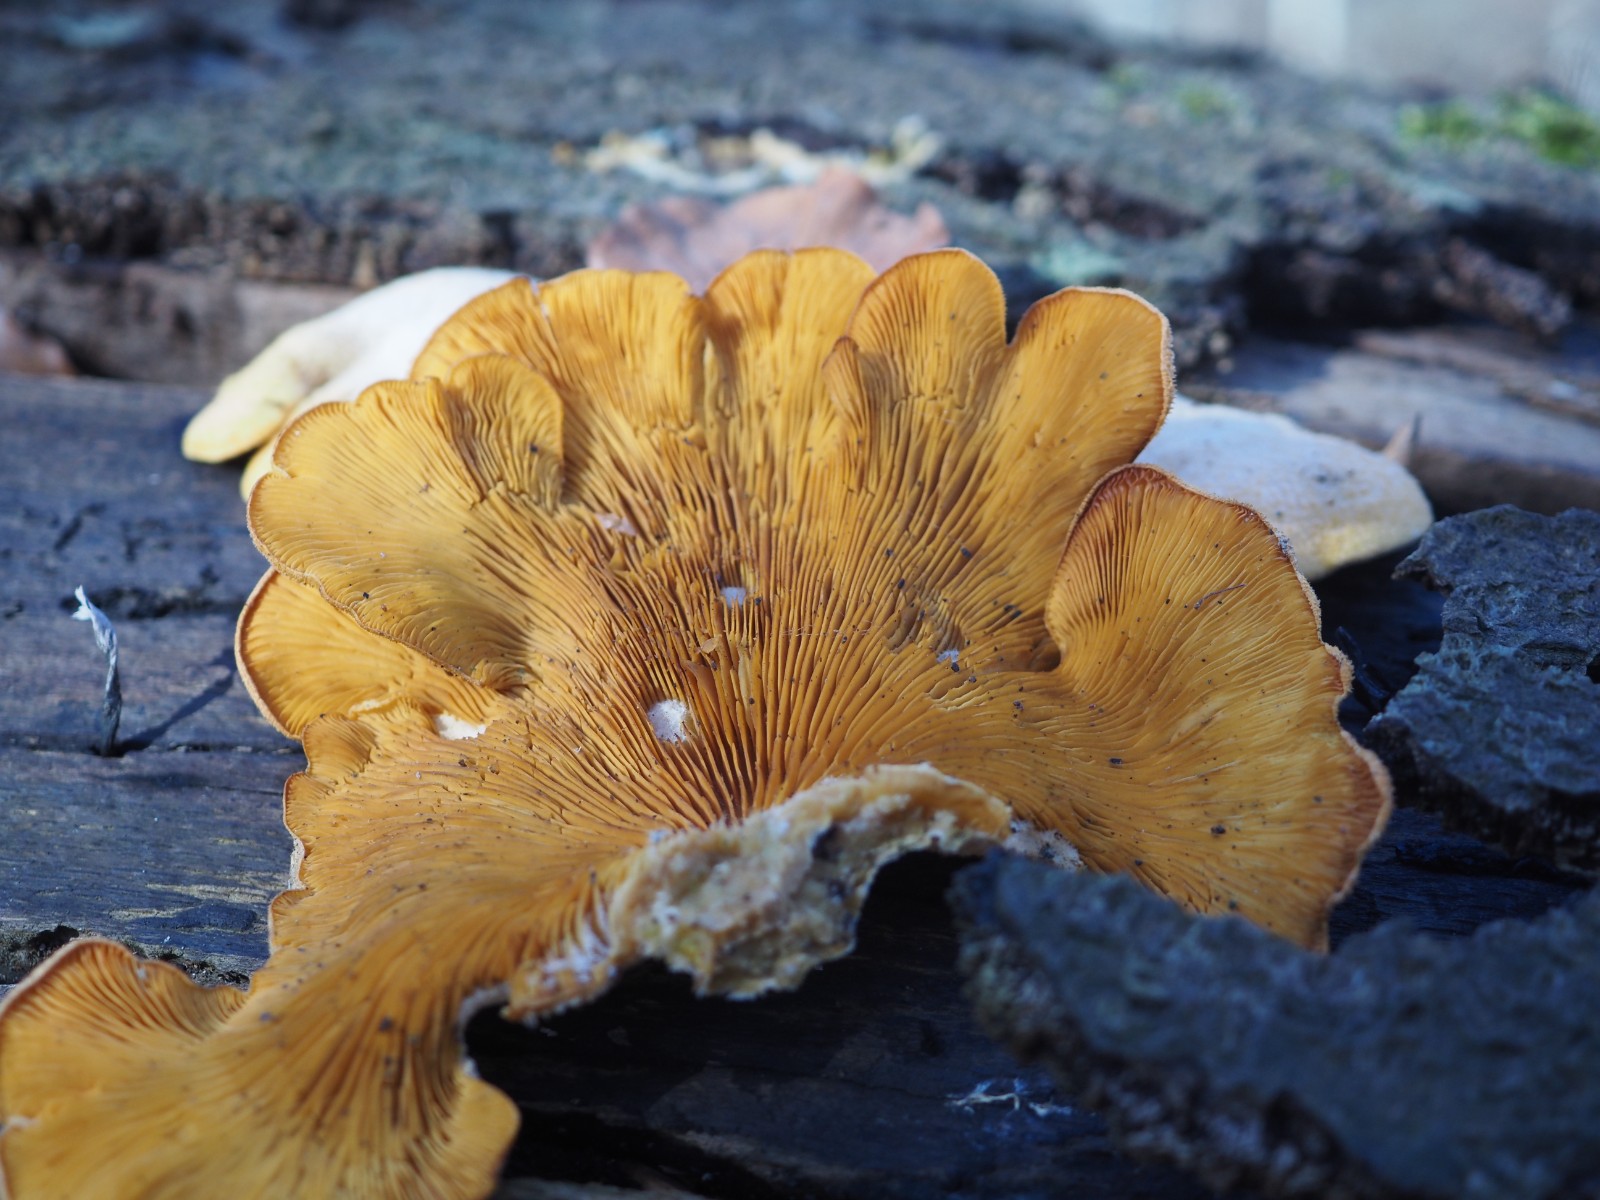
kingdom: Fungi
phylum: Basidiomycota
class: Agaricomycetes
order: Agaricales
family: Phyllotopsidaceae
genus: Phyllotopsis
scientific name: Phyllotopsis nidulans
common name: okkerblad
